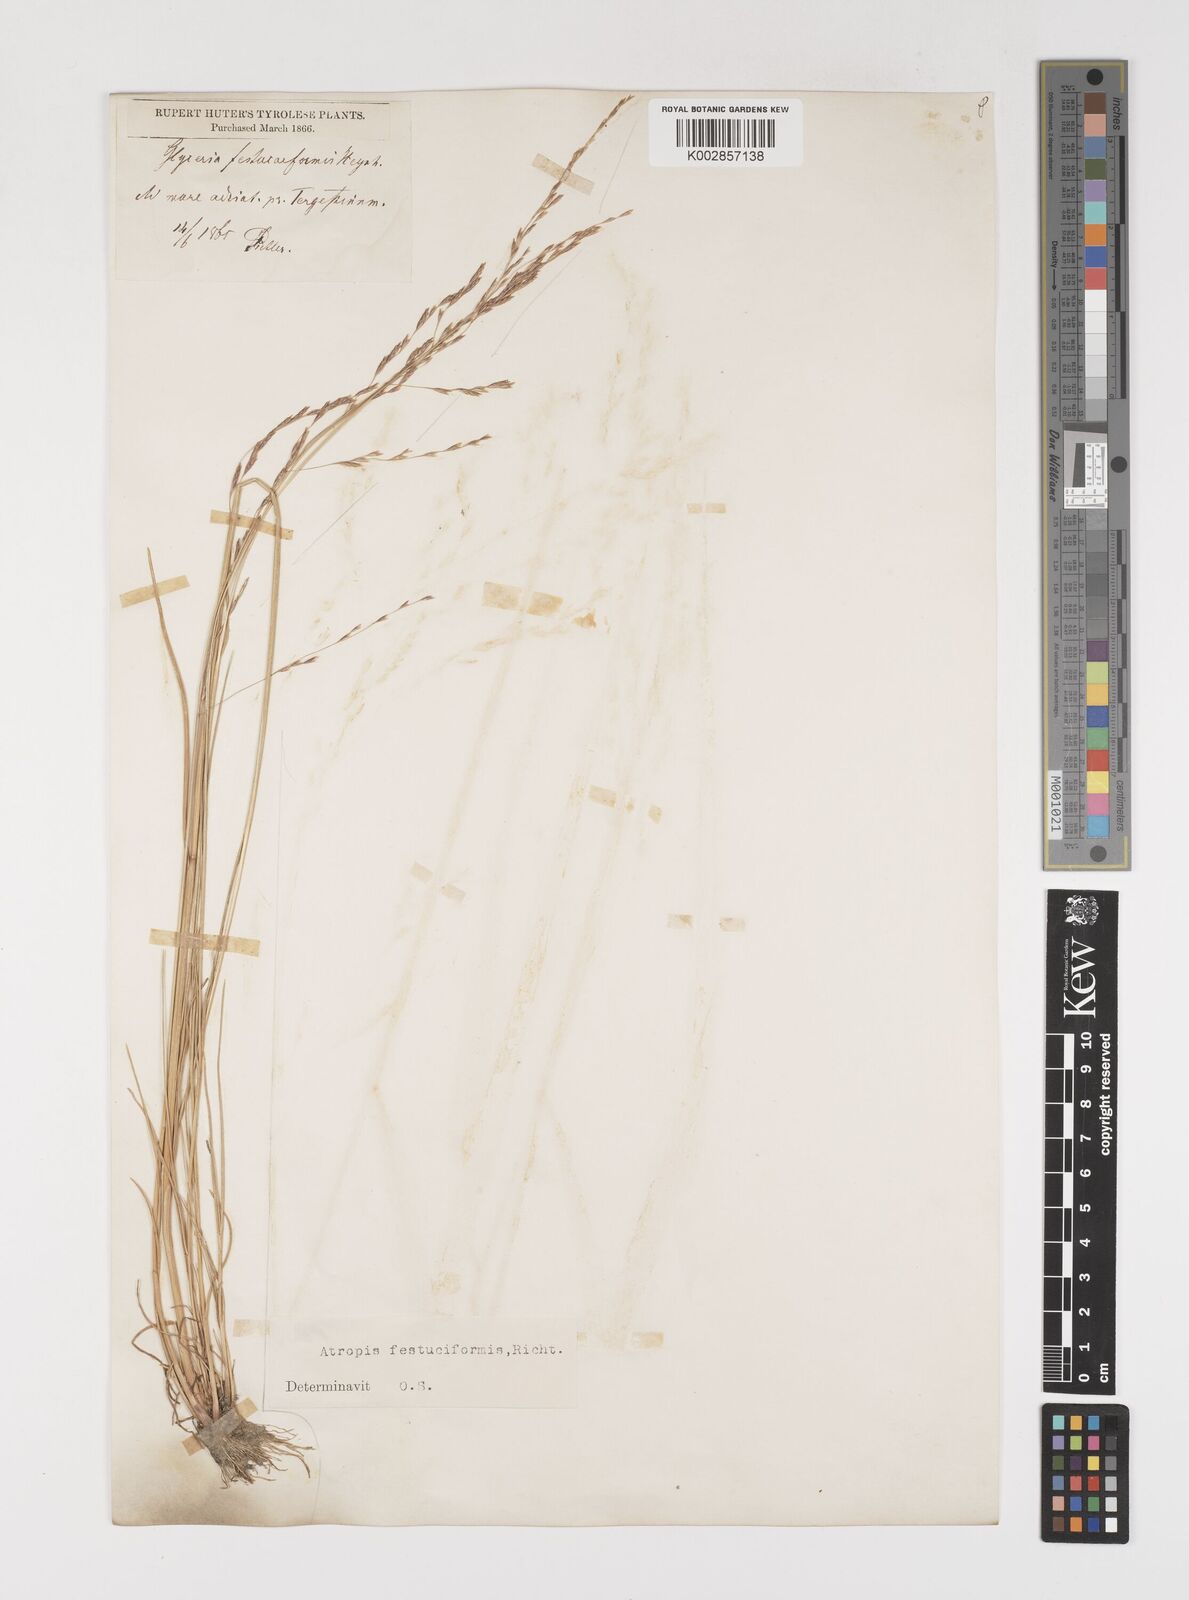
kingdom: Plantae
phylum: Tracheophyta
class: Liliopsida
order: Poales
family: Poaceae
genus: Puccinellia
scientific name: Puccinellia festuciformis
